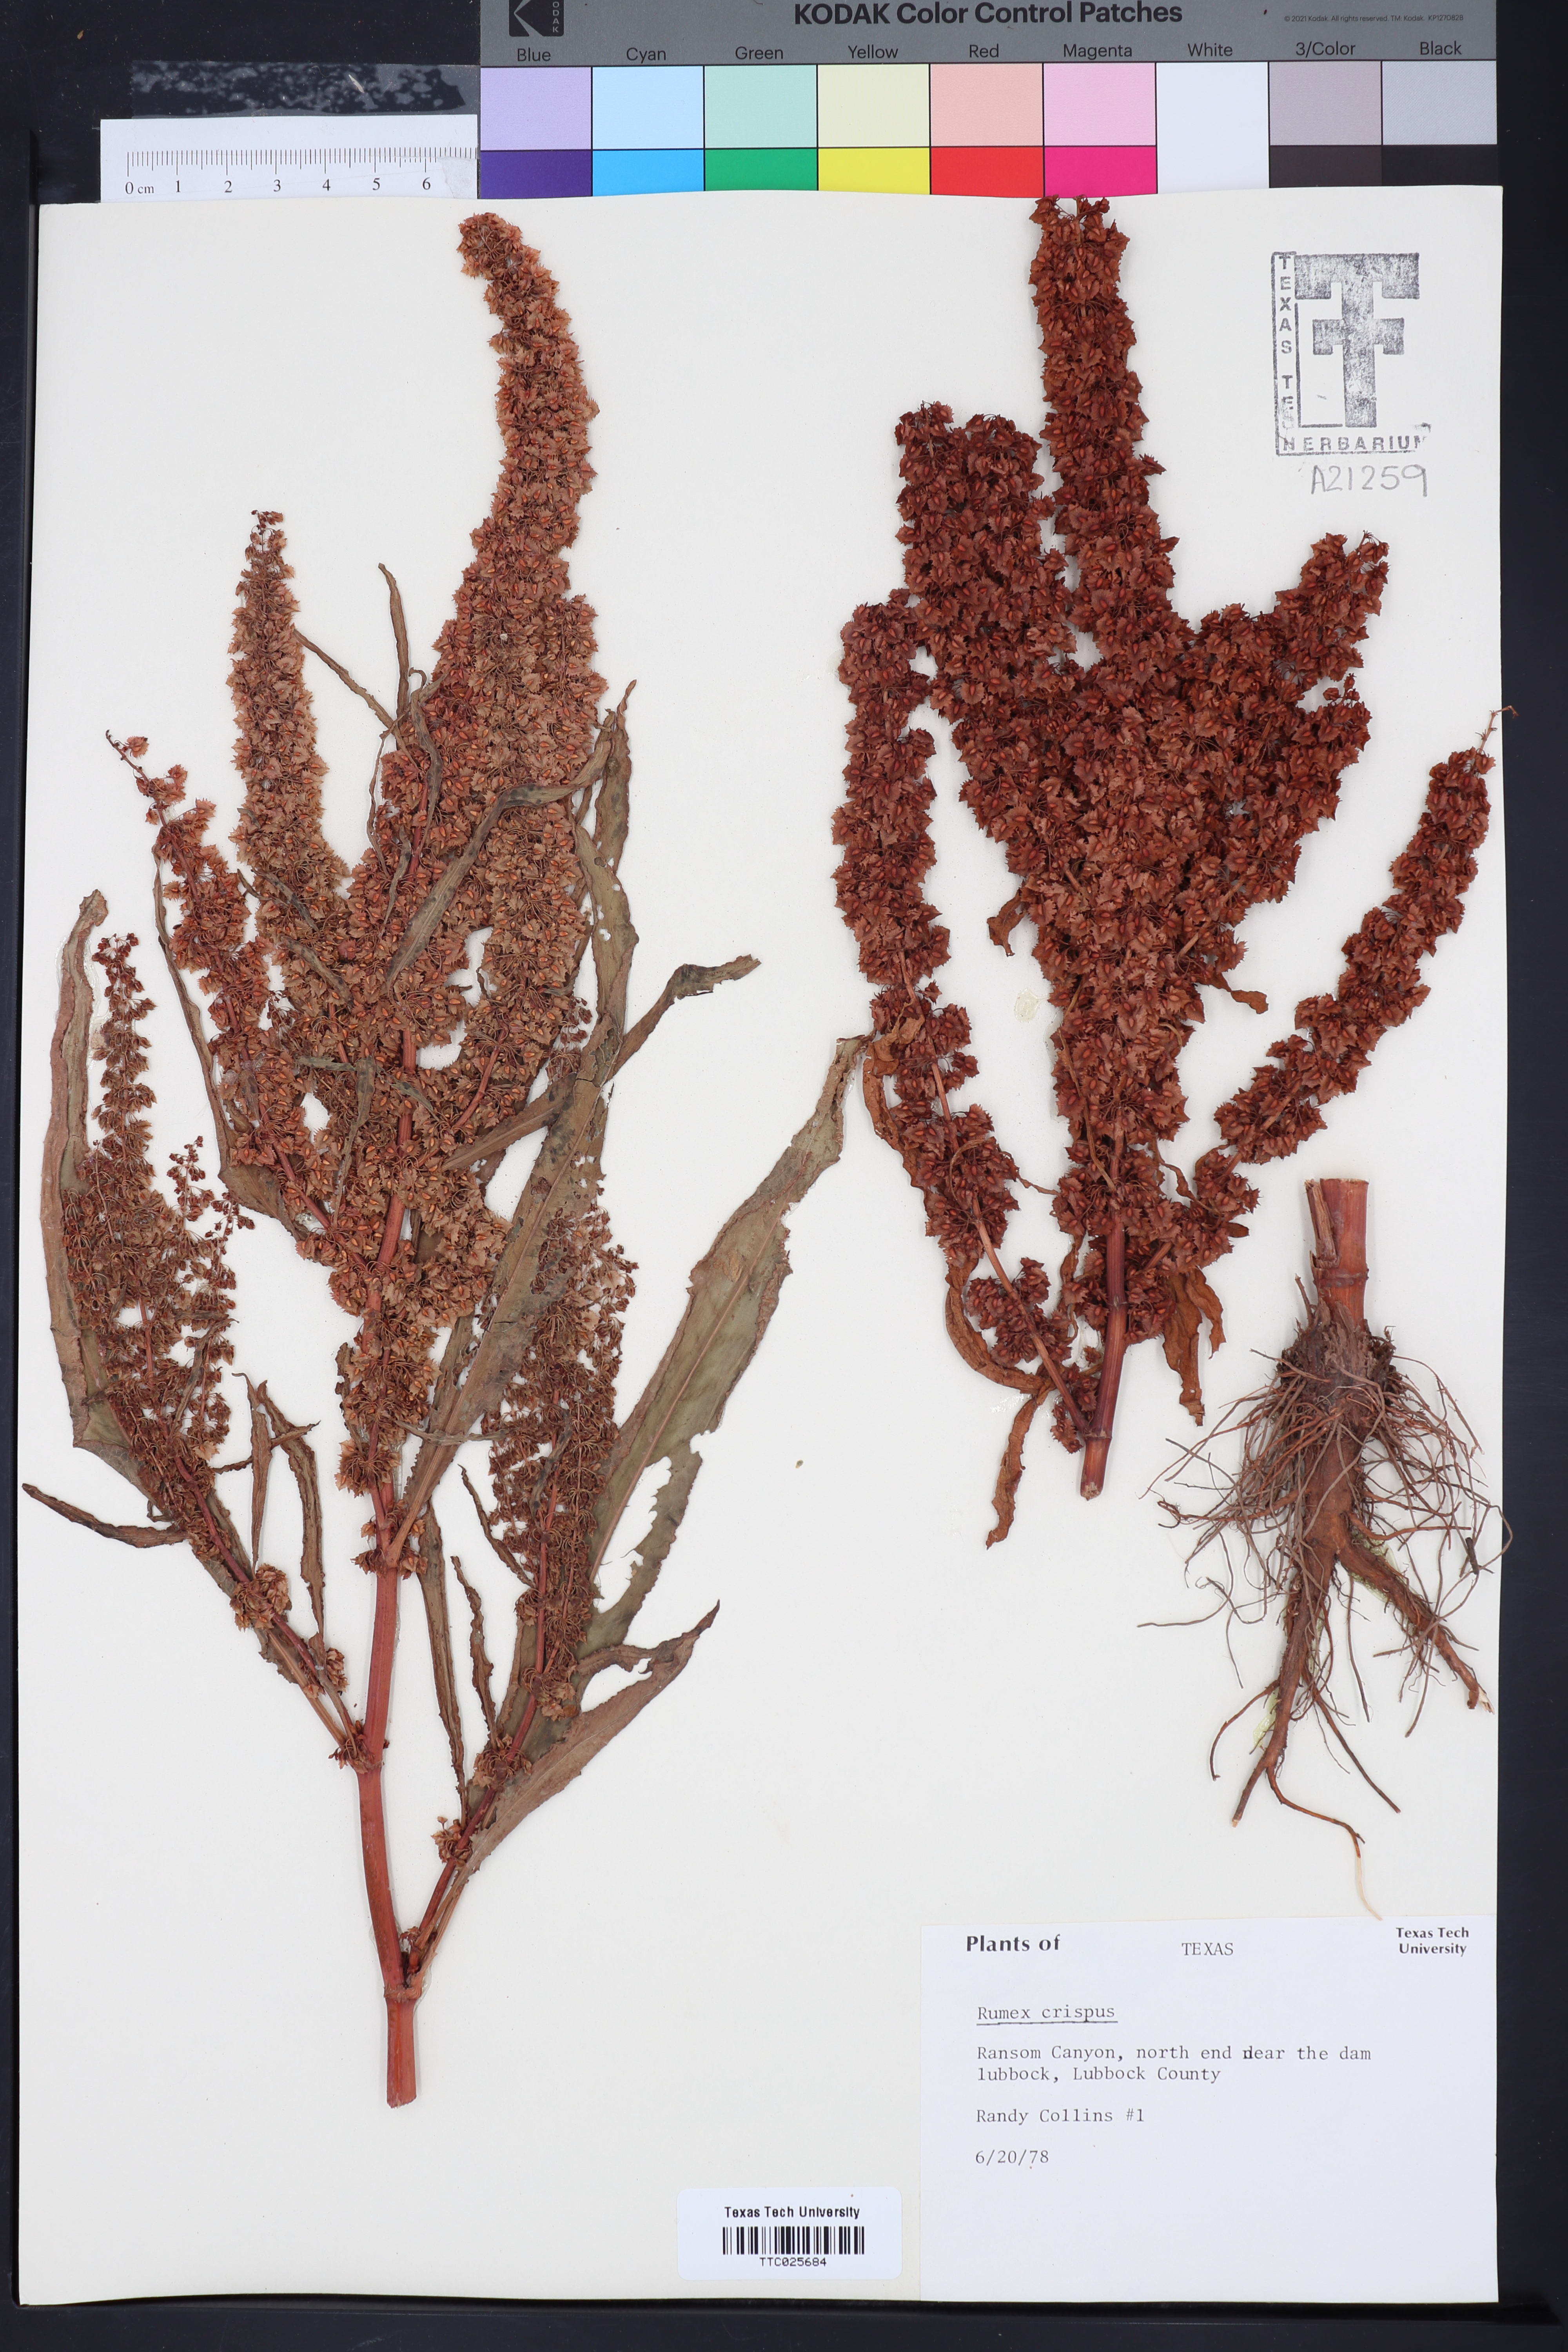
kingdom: Plantae
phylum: Tracheophyta
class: Magnoliopsida
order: Caryophyllales
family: Polygonaceae
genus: Rumex
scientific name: Rumex crispus
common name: Curled dock
